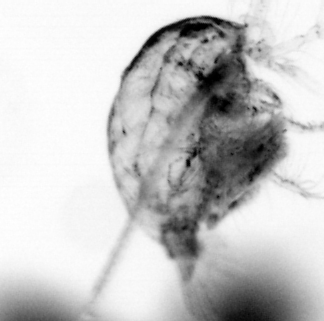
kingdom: Animalia
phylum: Arthropoda
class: Copepoda
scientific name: Copepoda
